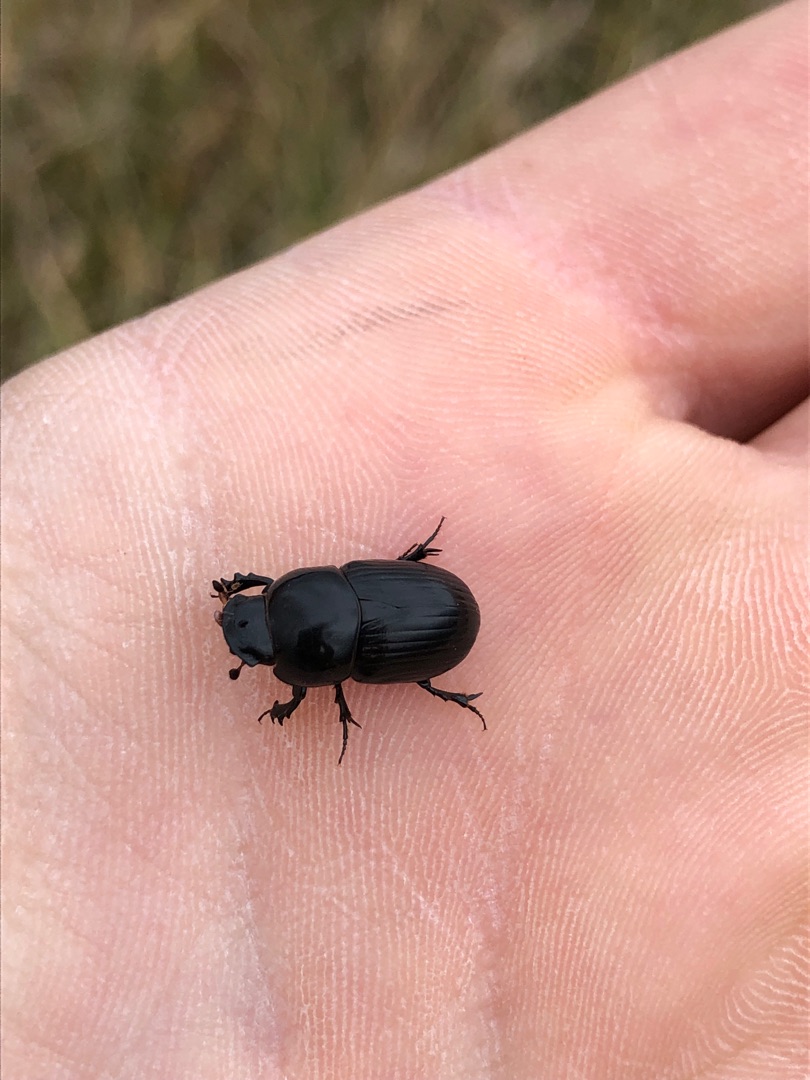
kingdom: Animalia
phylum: Arthropoda
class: Insecta
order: Coleoptera
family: Scarabaeidae
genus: Teuchestes
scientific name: Teuchestes fossor
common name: Stor møgbille
